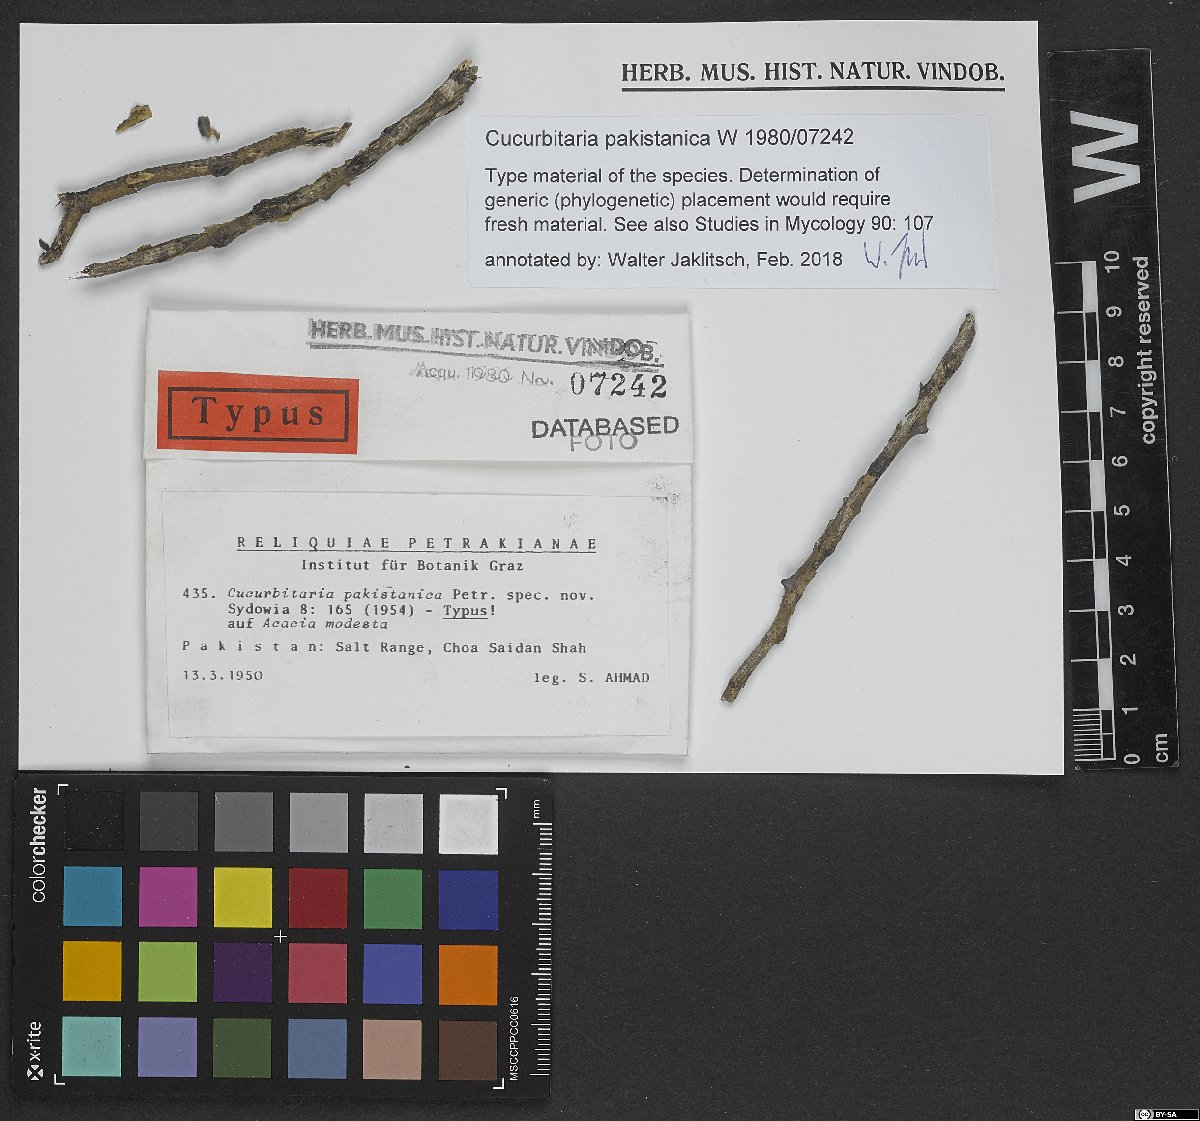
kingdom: Fungi
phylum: Ascomycota
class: Dothideomycetes
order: Pleosporales
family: Cucurbitariaceae
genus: Cucurbitaria
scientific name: Cucurbitaria pakistanica
